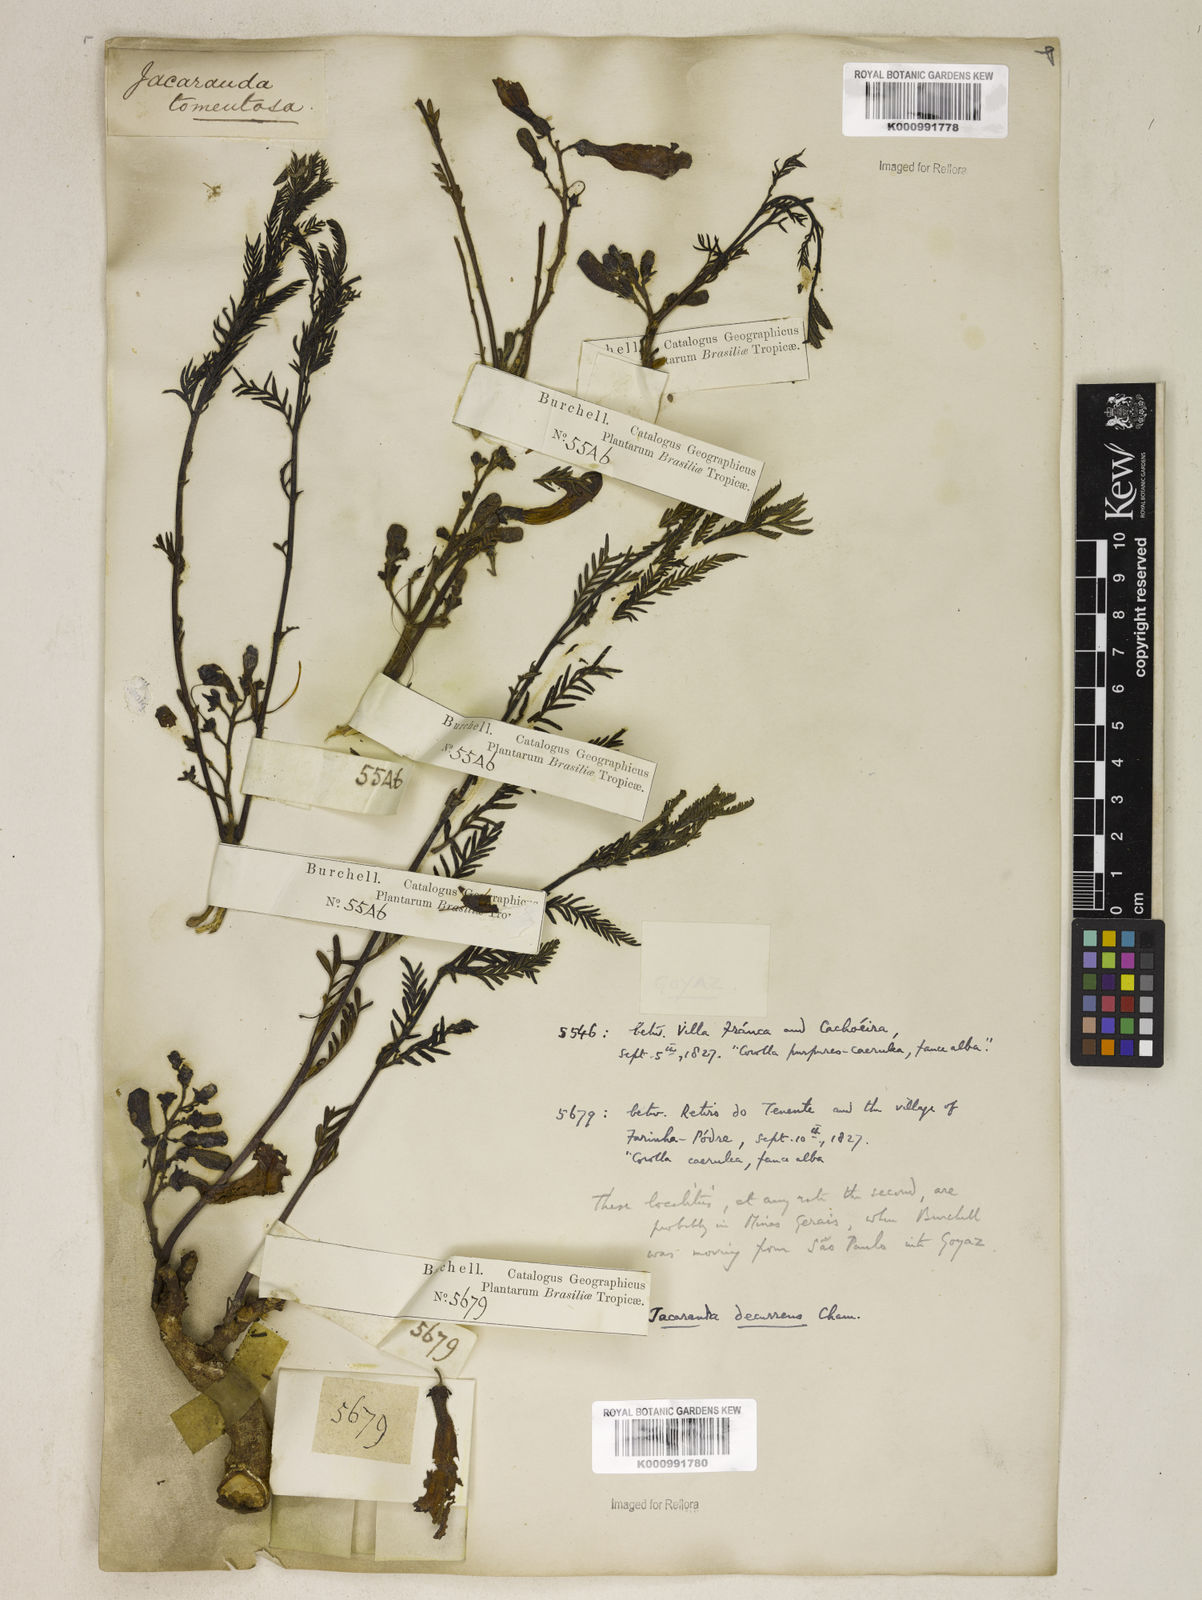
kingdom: Plantae
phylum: Tracheophyta
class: Magnoliopsida
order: Lamiales
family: Bignoniaceae
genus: Jacaranda
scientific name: Jacaranda decurrens
